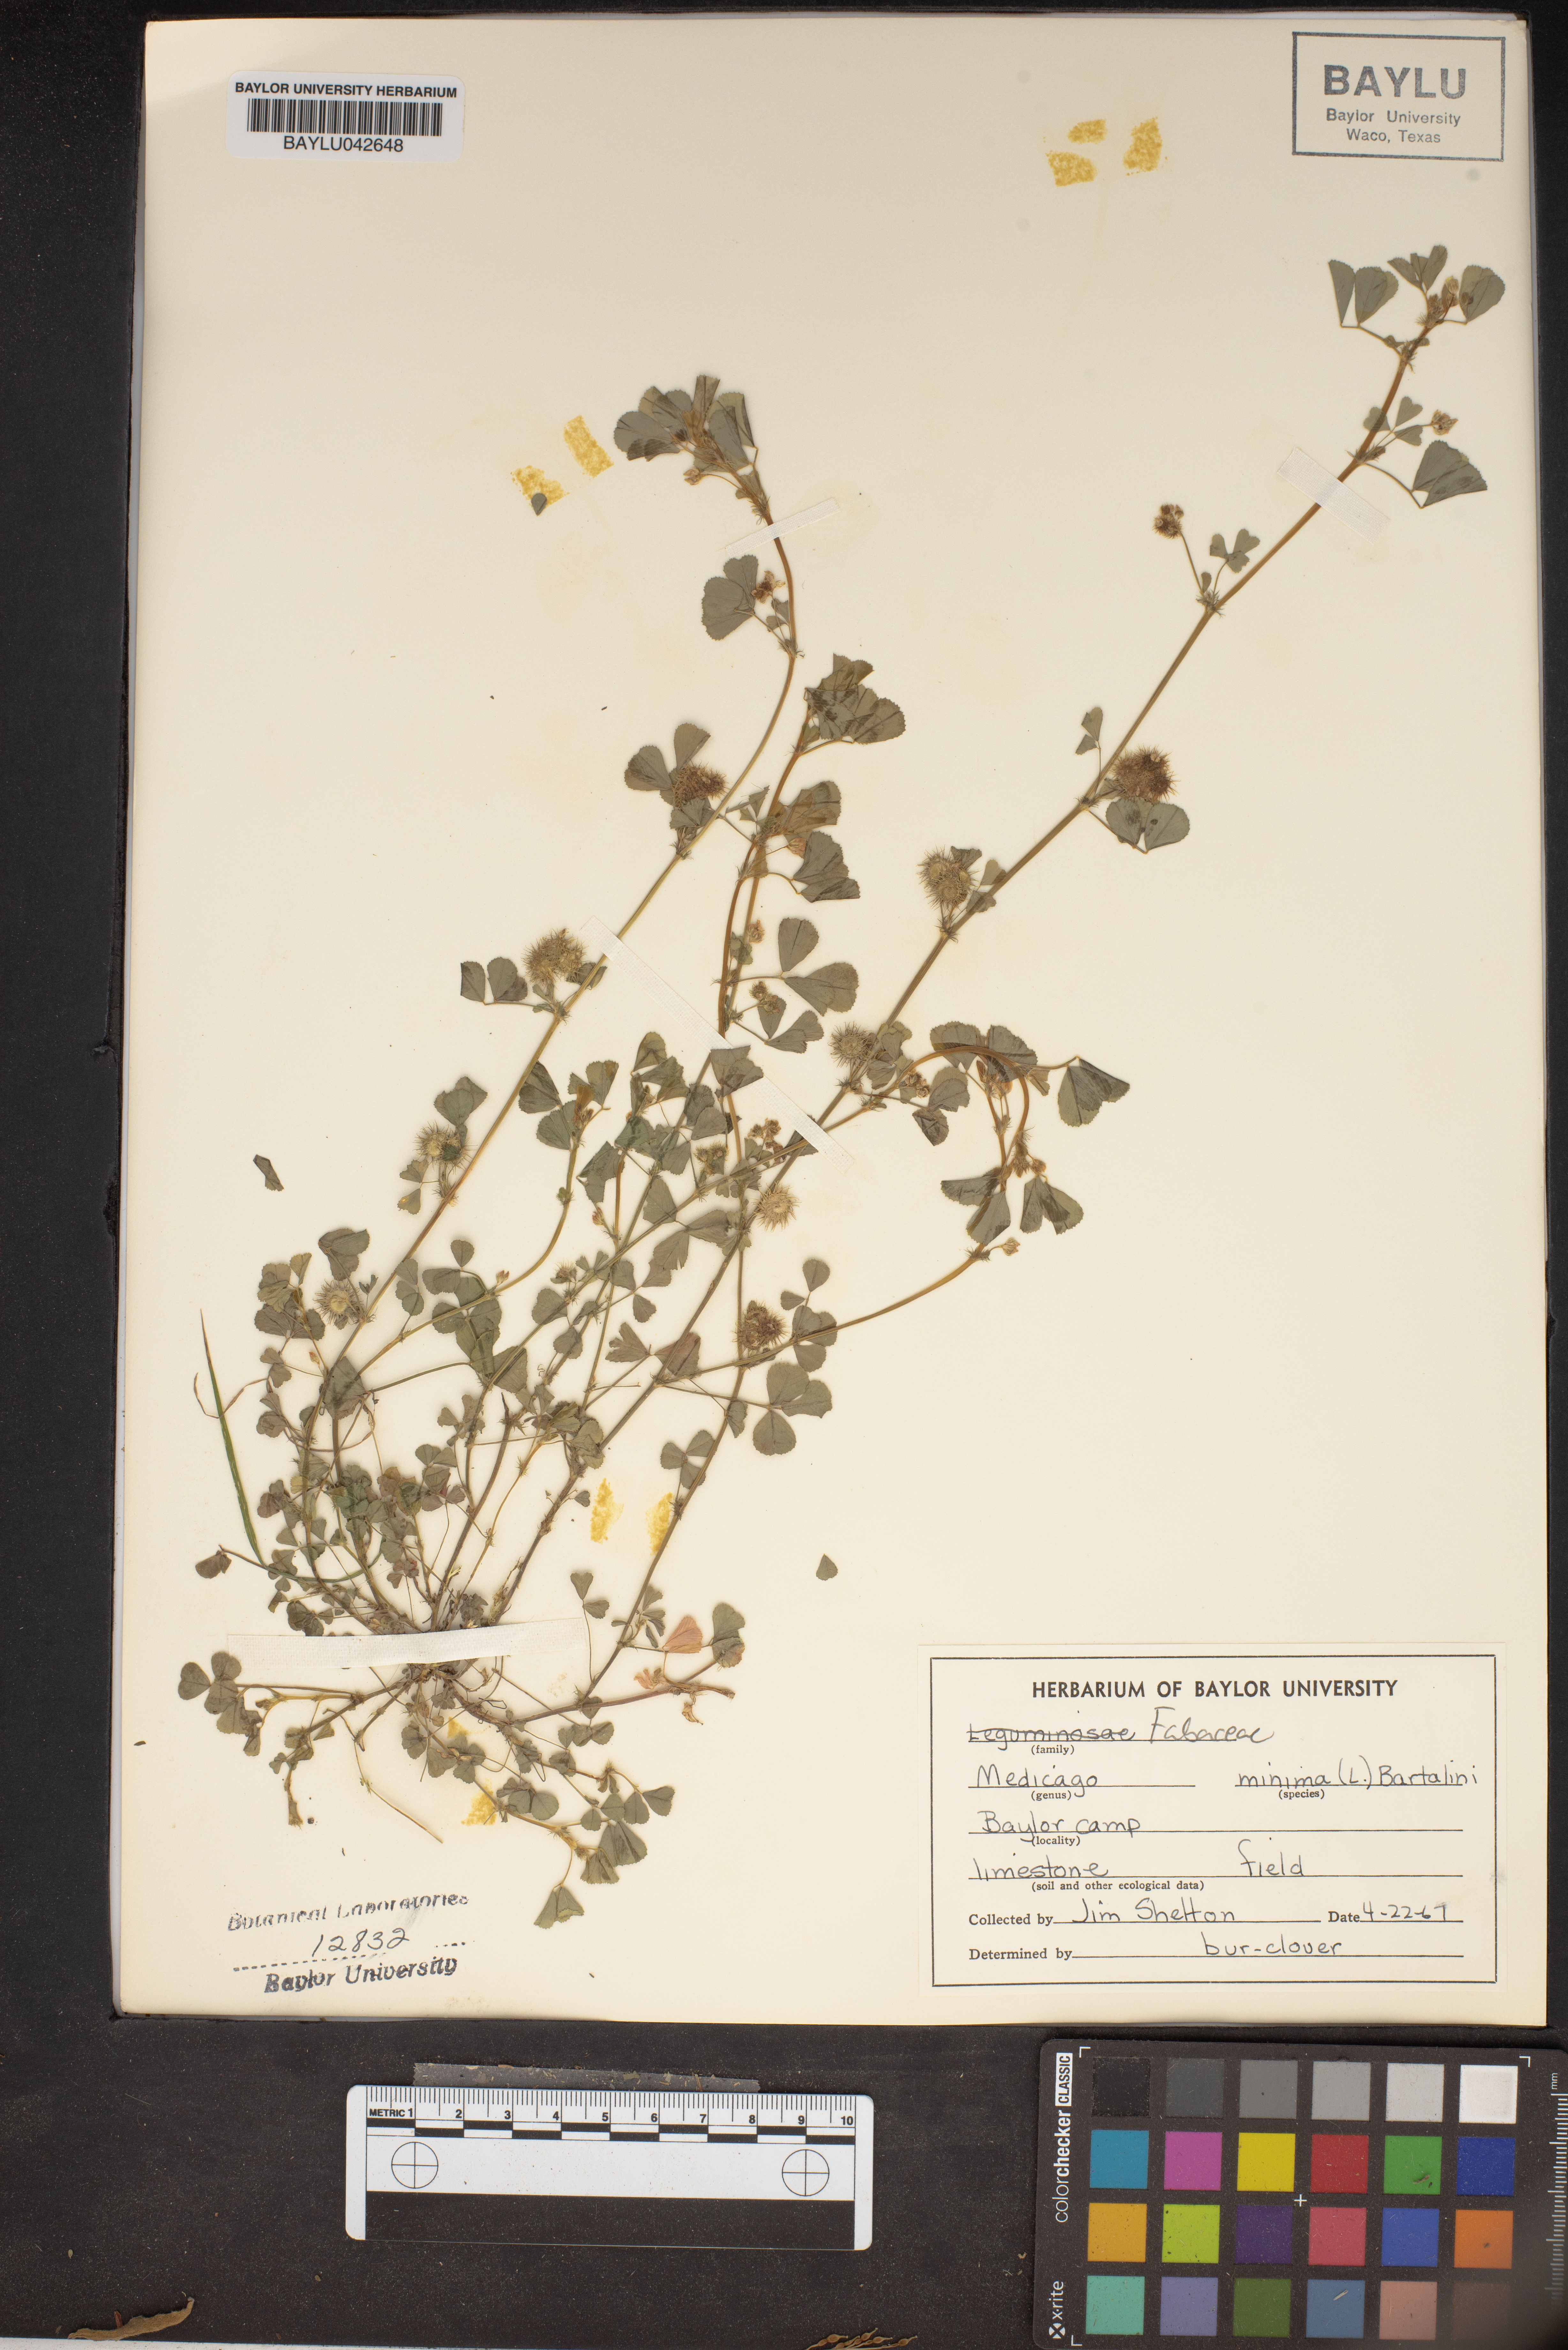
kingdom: Plantae
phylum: Tracheophyta
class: Magnoliopsida
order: Fabales
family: Fabaceae
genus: Medicago
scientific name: Medicago minima
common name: Little bur-clover
